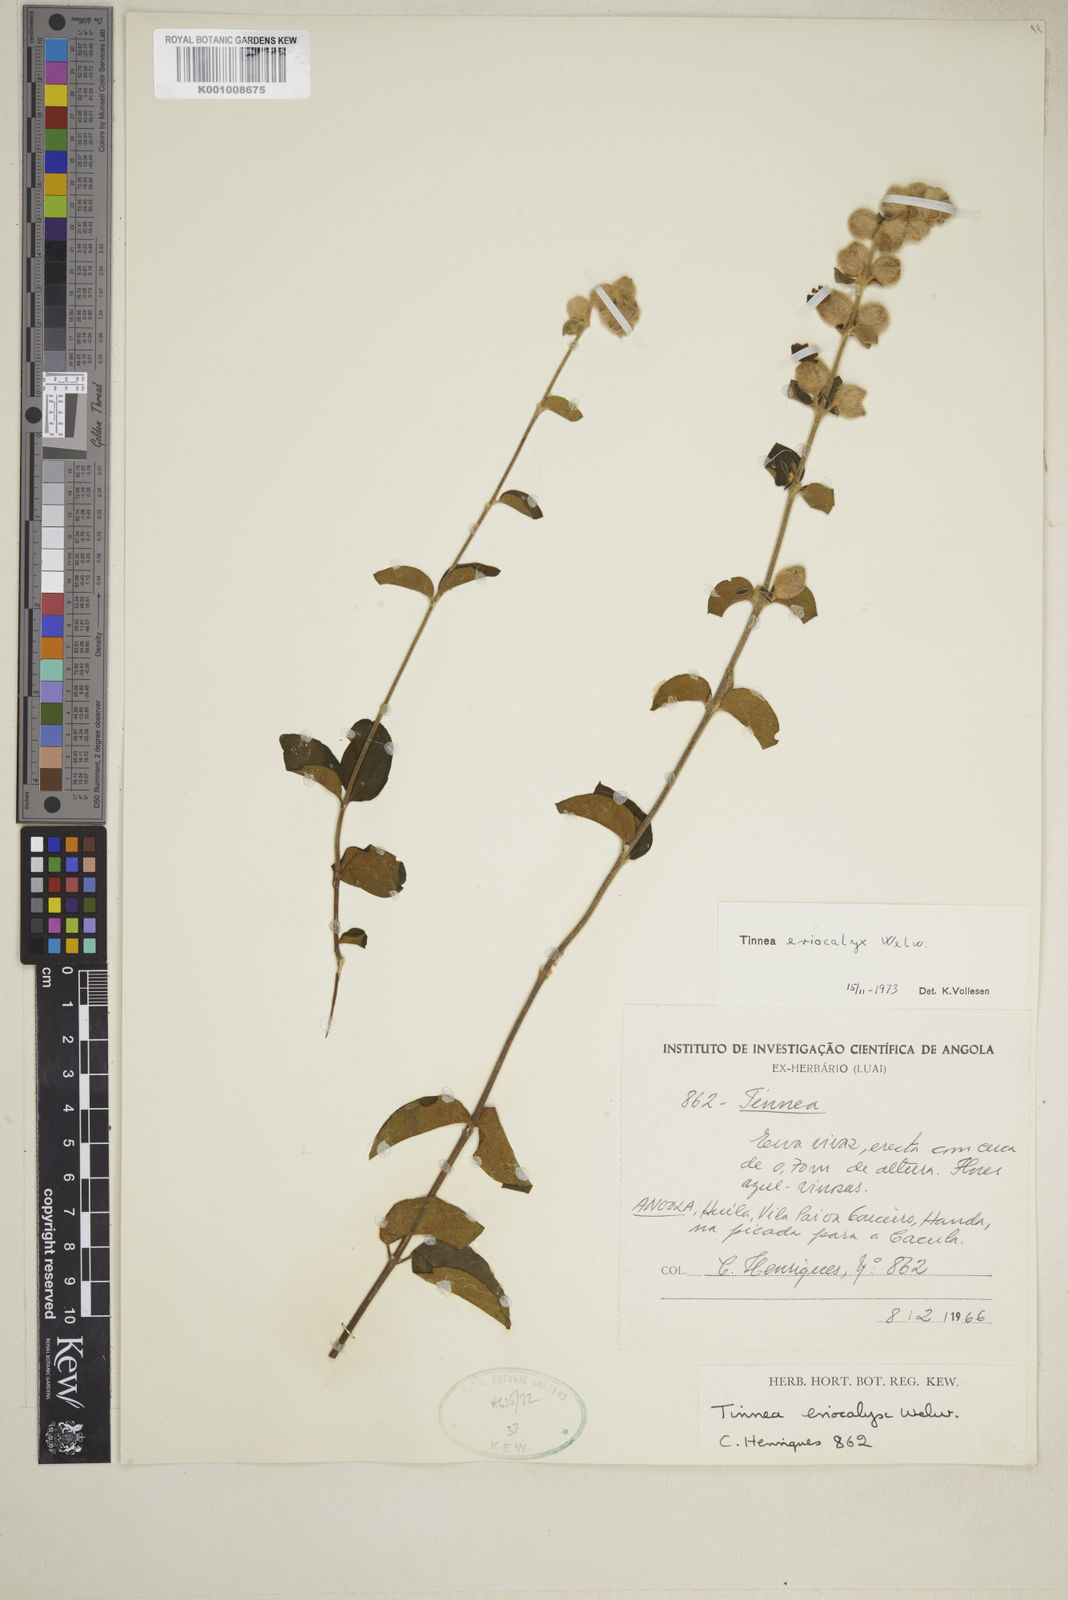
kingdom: Plantae
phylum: Tracheophyta
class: Magnoliopsida
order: Lamiales
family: Lamiaceae
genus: Tinnea
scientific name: Tinnea eriocalyx
